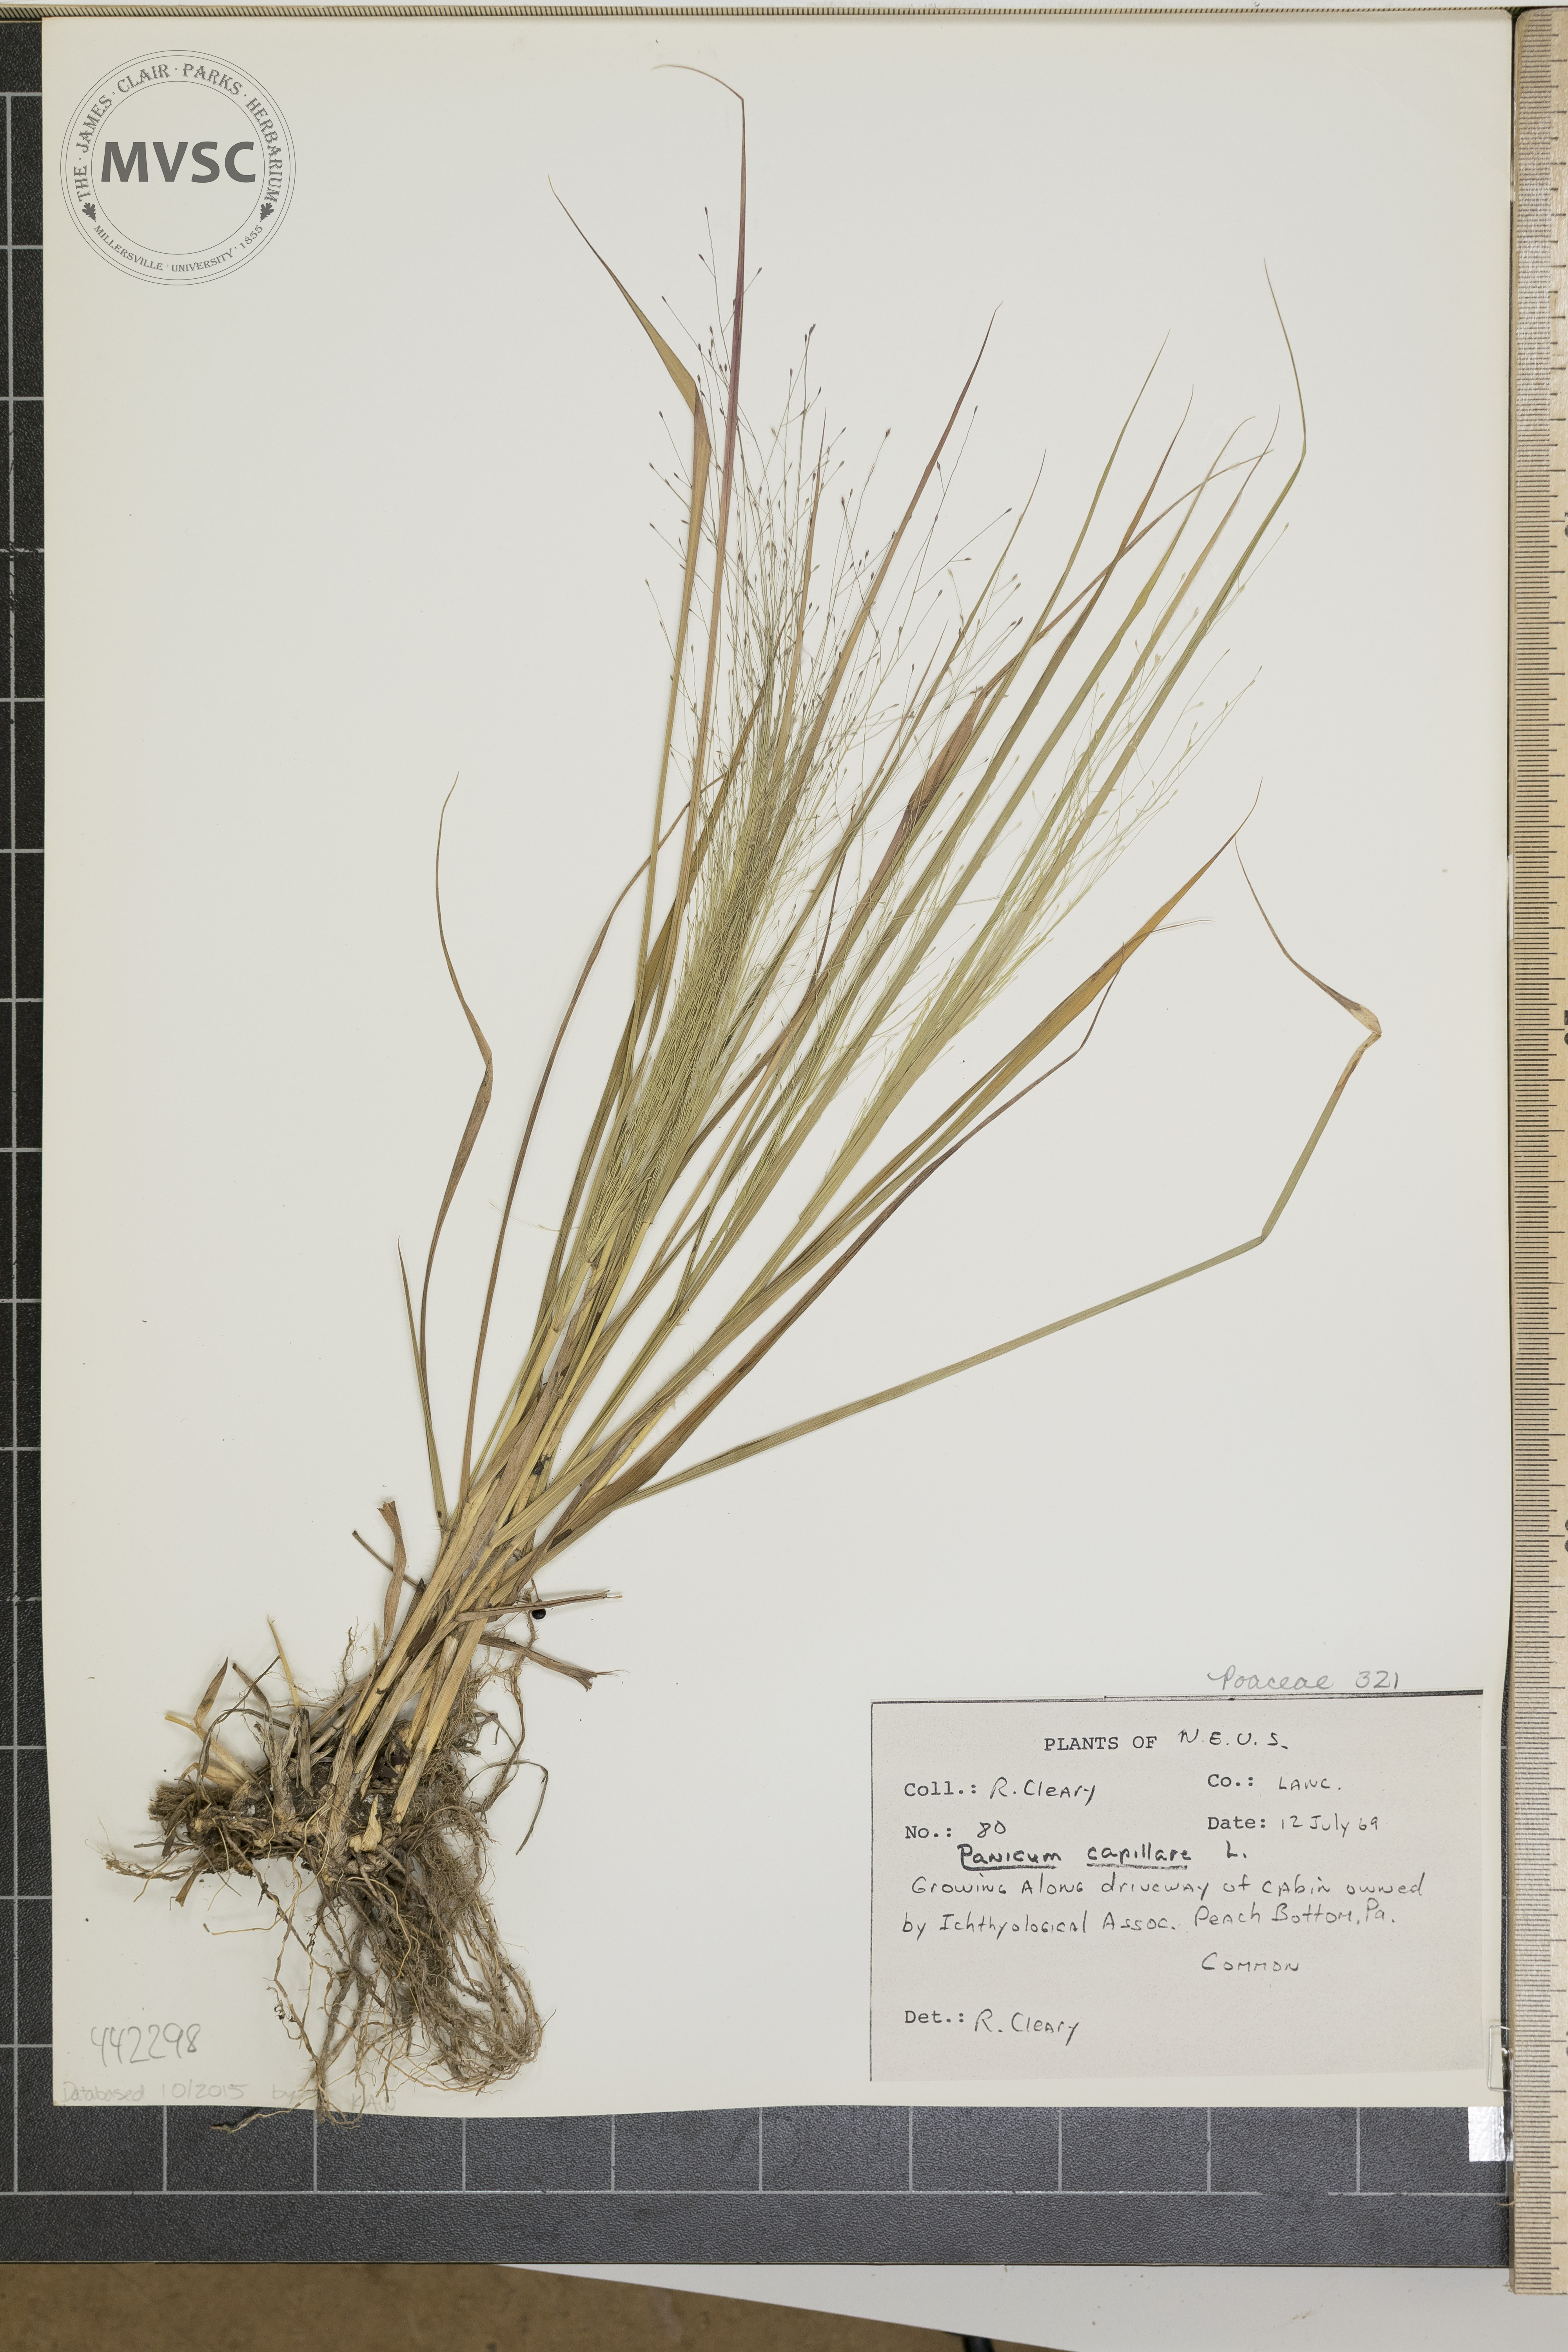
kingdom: Plantae
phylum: Tracheophyta
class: Liliopsida
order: Poales
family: Poaceae
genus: Panicum
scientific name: Panicum capillare
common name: Witch-grass
